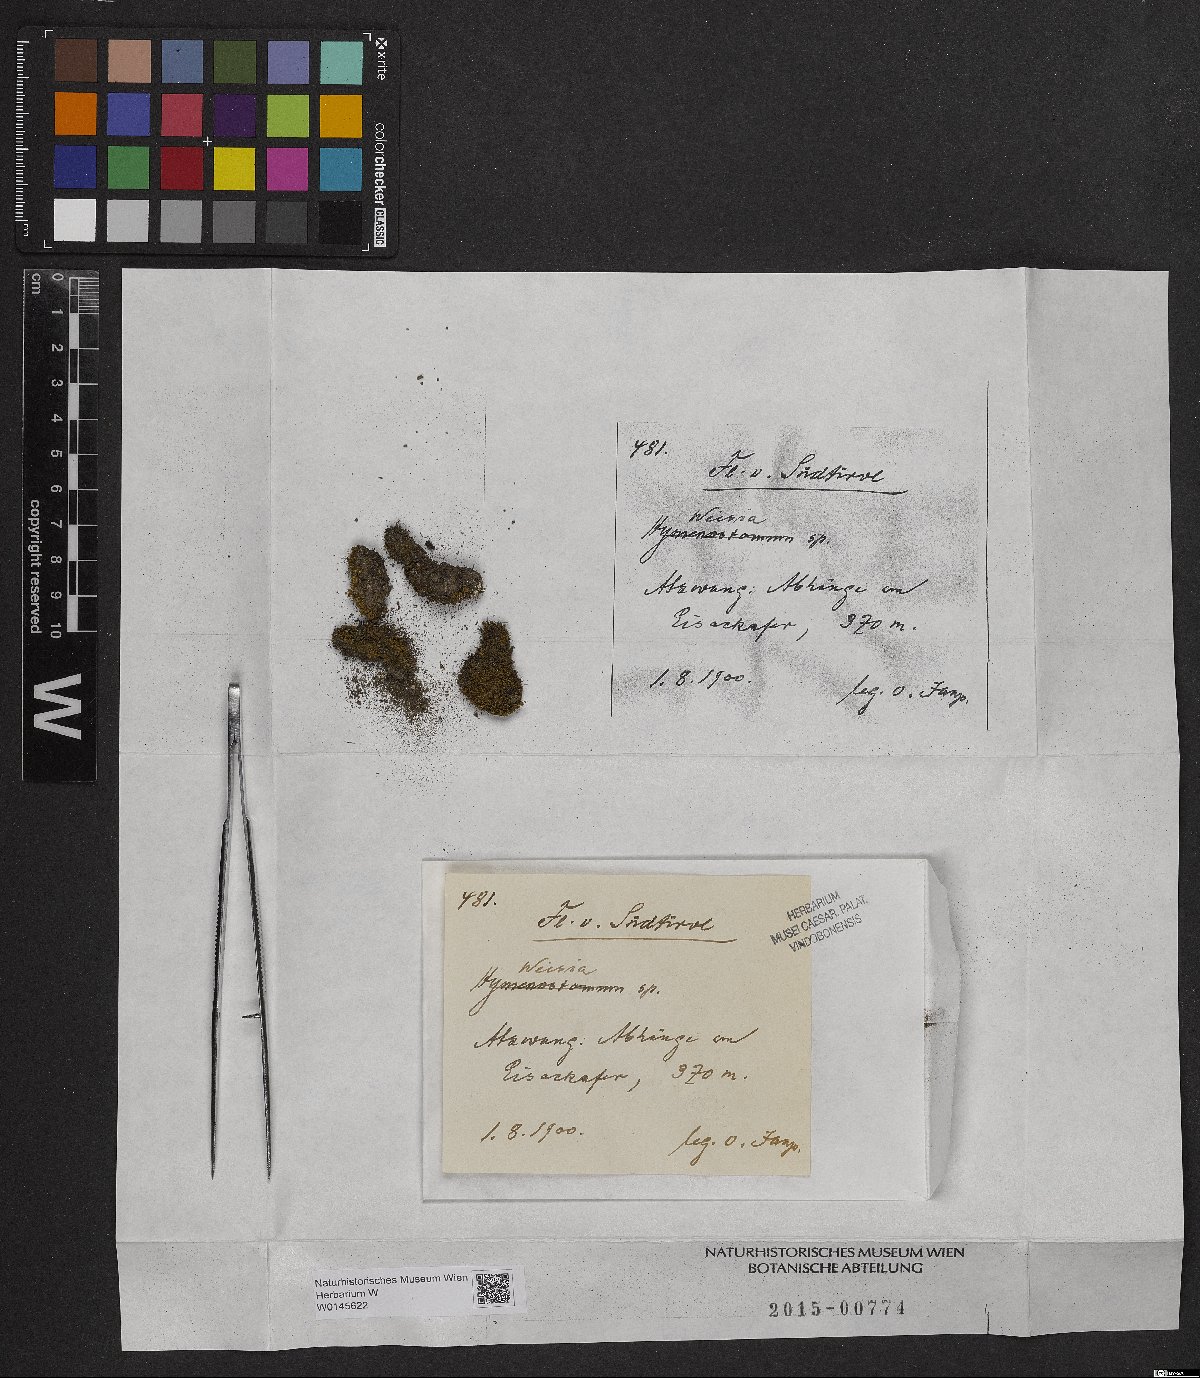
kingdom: Plantae
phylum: Bryophyta
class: Bryopsida
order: Pottiales
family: Pottiaceae
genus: Weissia
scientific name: Weissia
